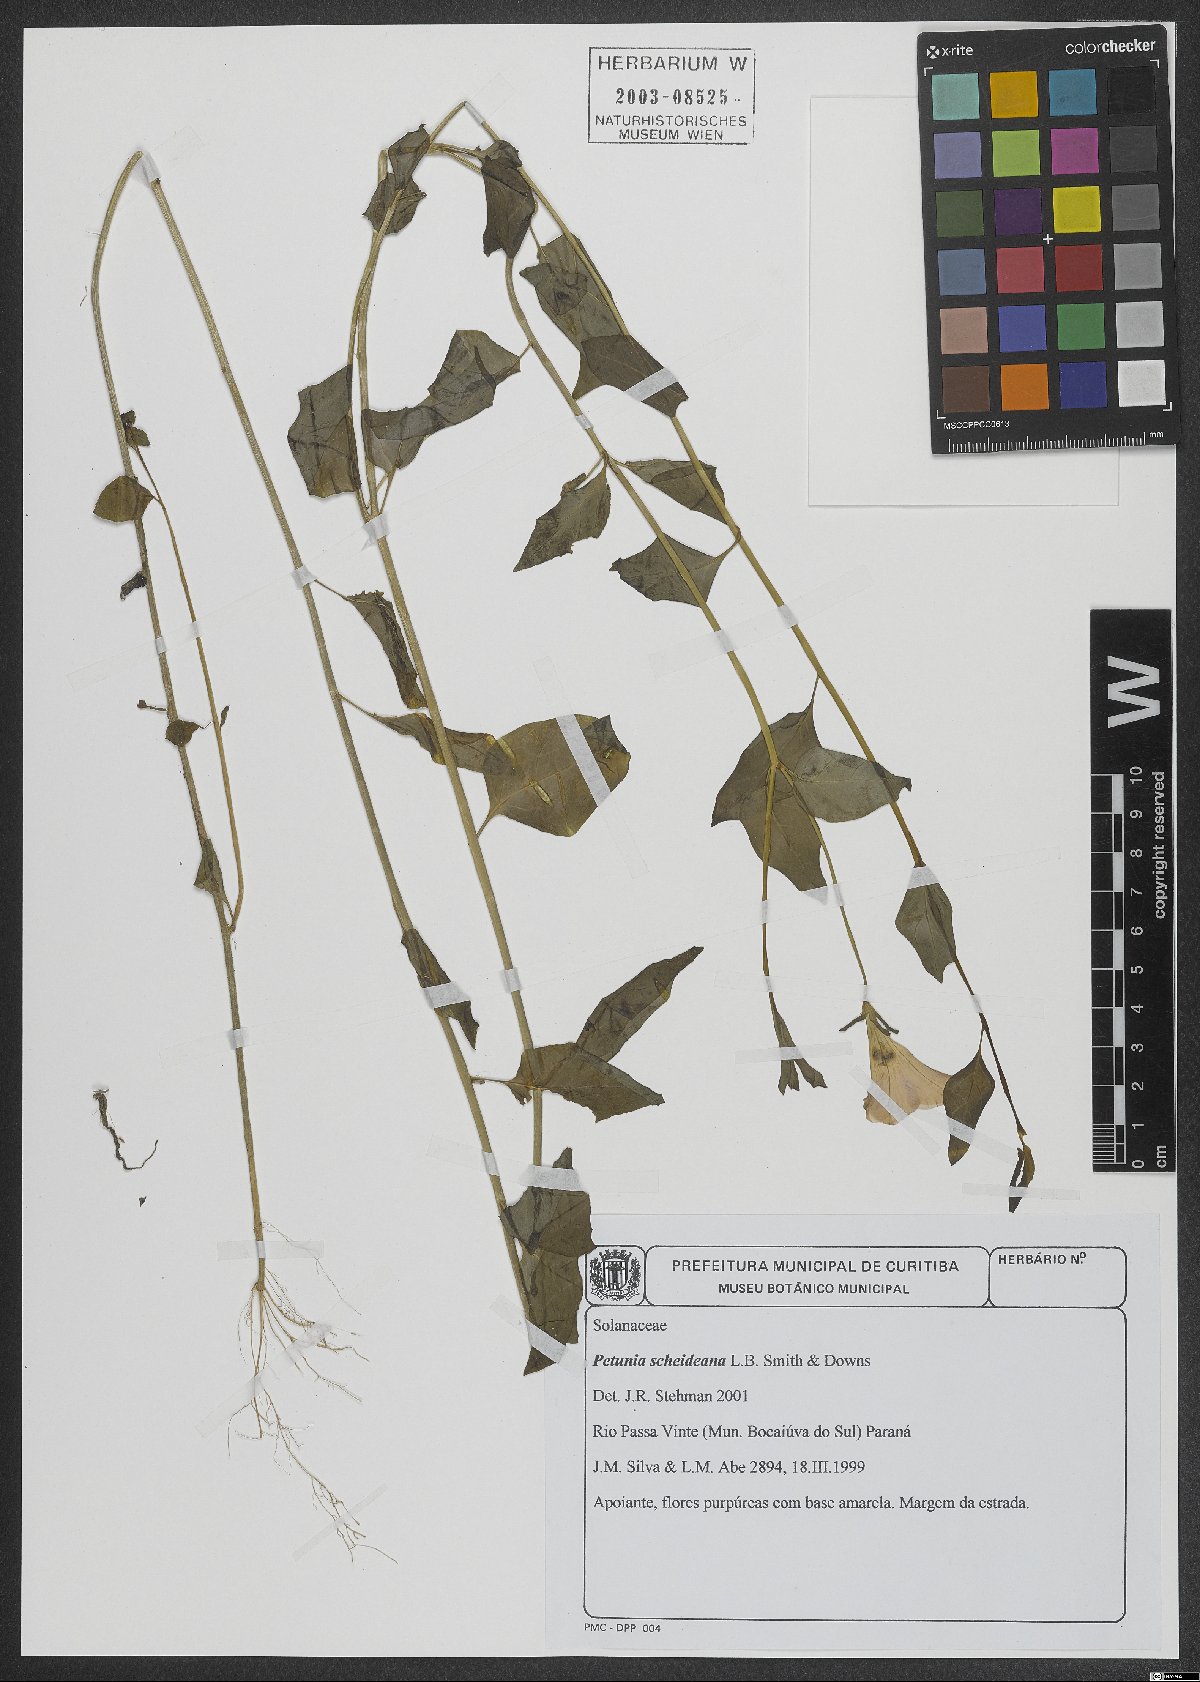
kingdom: Plantae
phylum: Tracheophyta
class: Magnoliopsida
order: Solanales
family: Solanaceae
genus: Petunia
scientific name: Petunia scheideana
